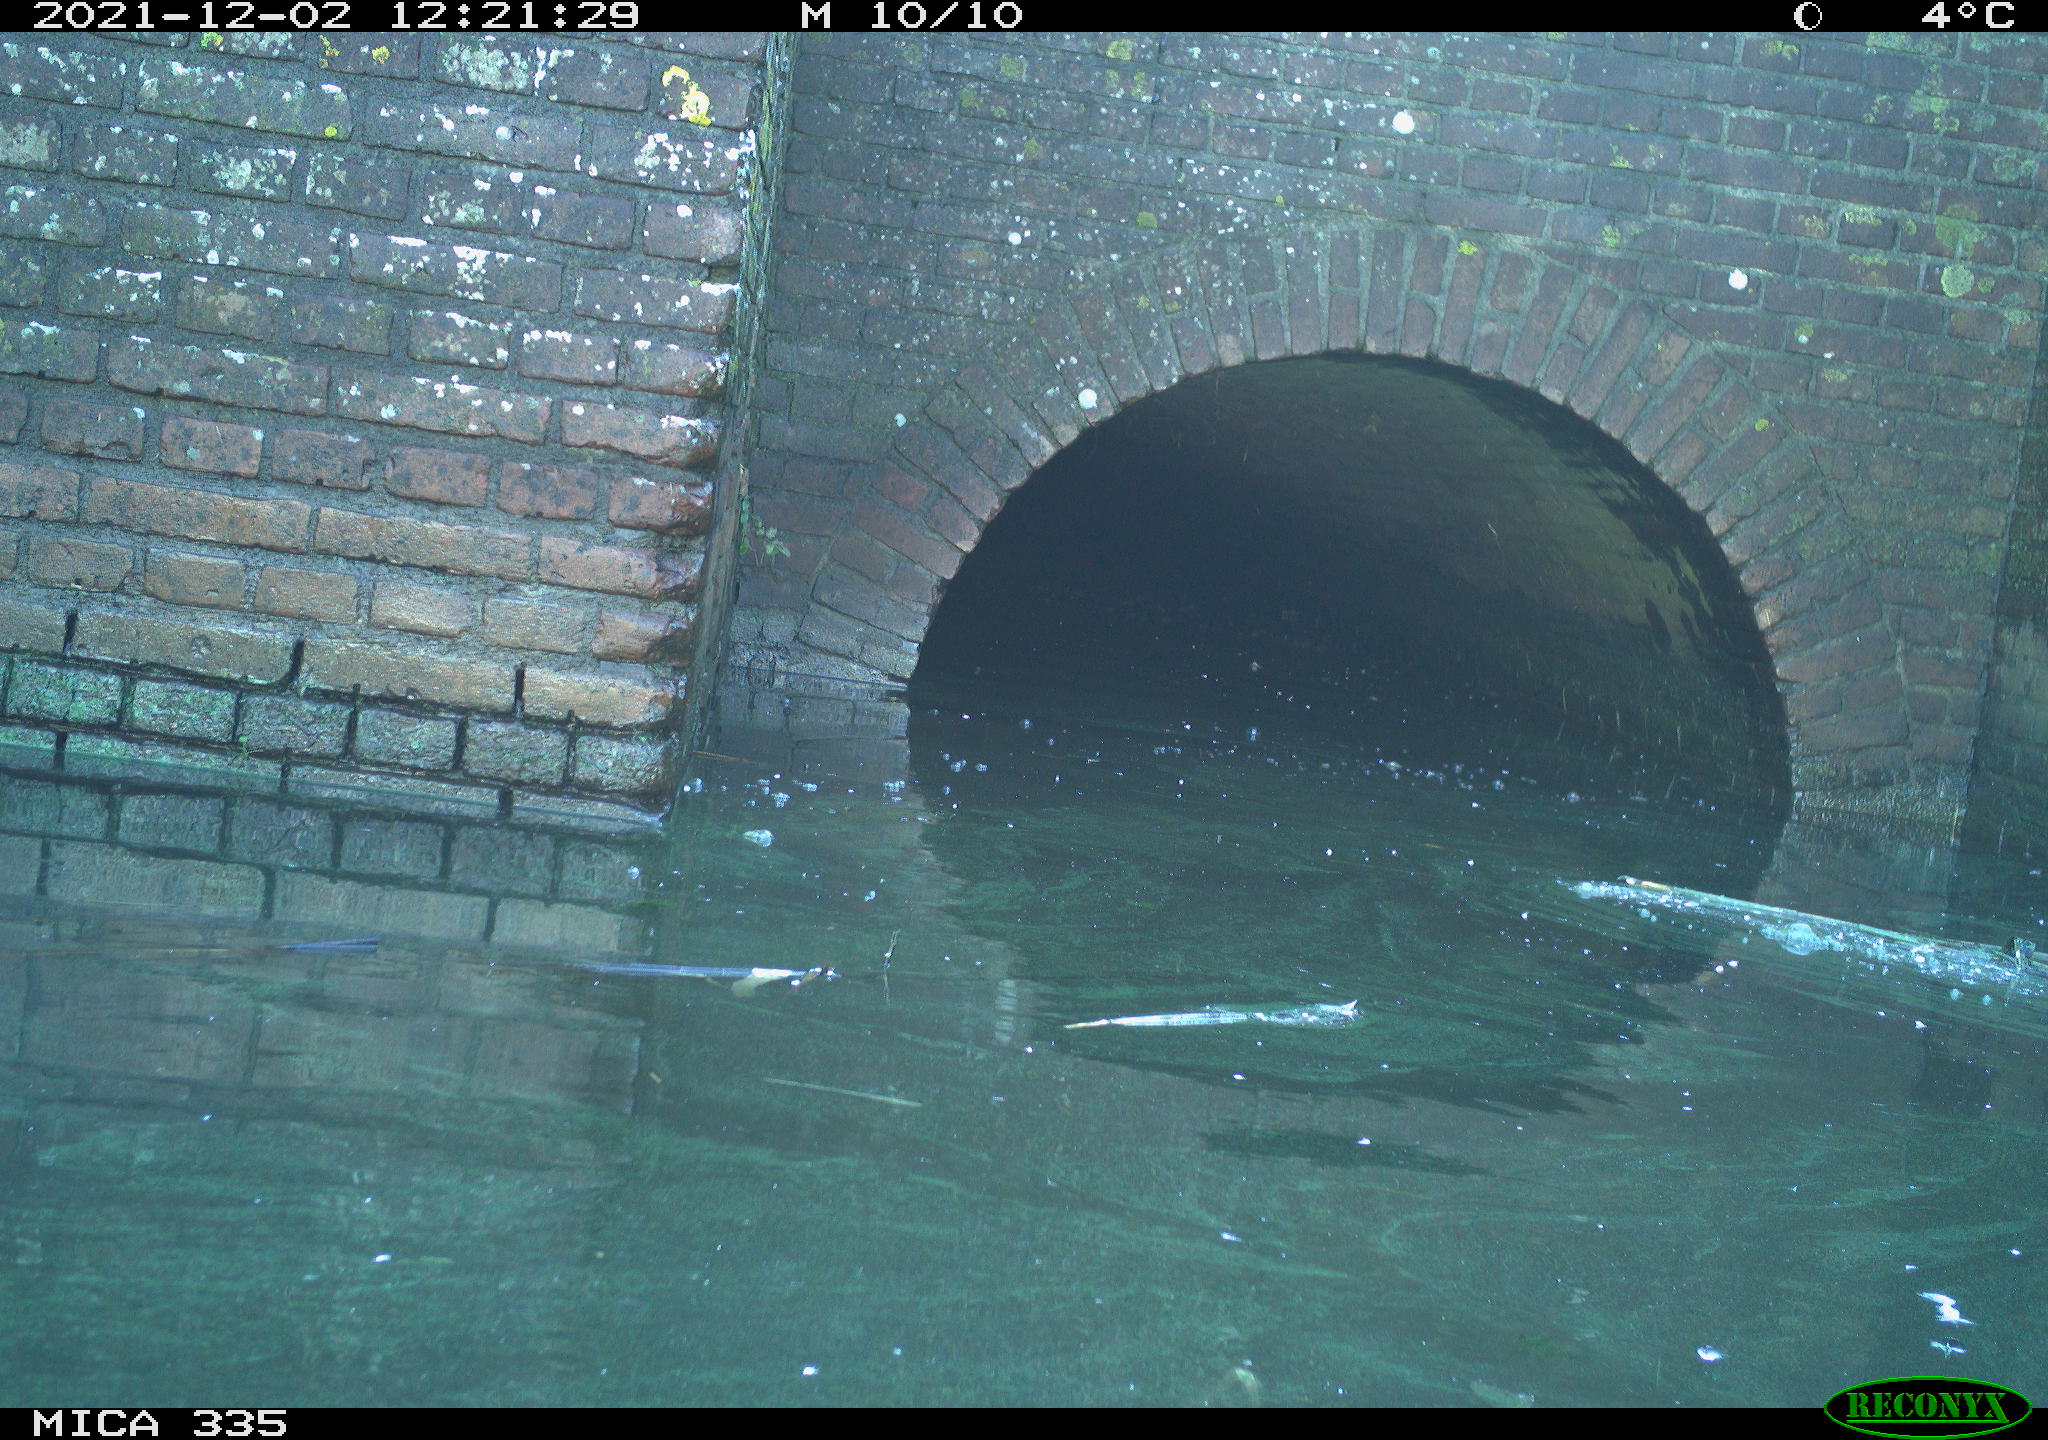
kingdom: Animalia
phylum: Chordata
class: Aves
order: Gruiformes
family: Rallidae
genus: Fulica
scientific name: Fulica atra
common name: Eurasian coot
